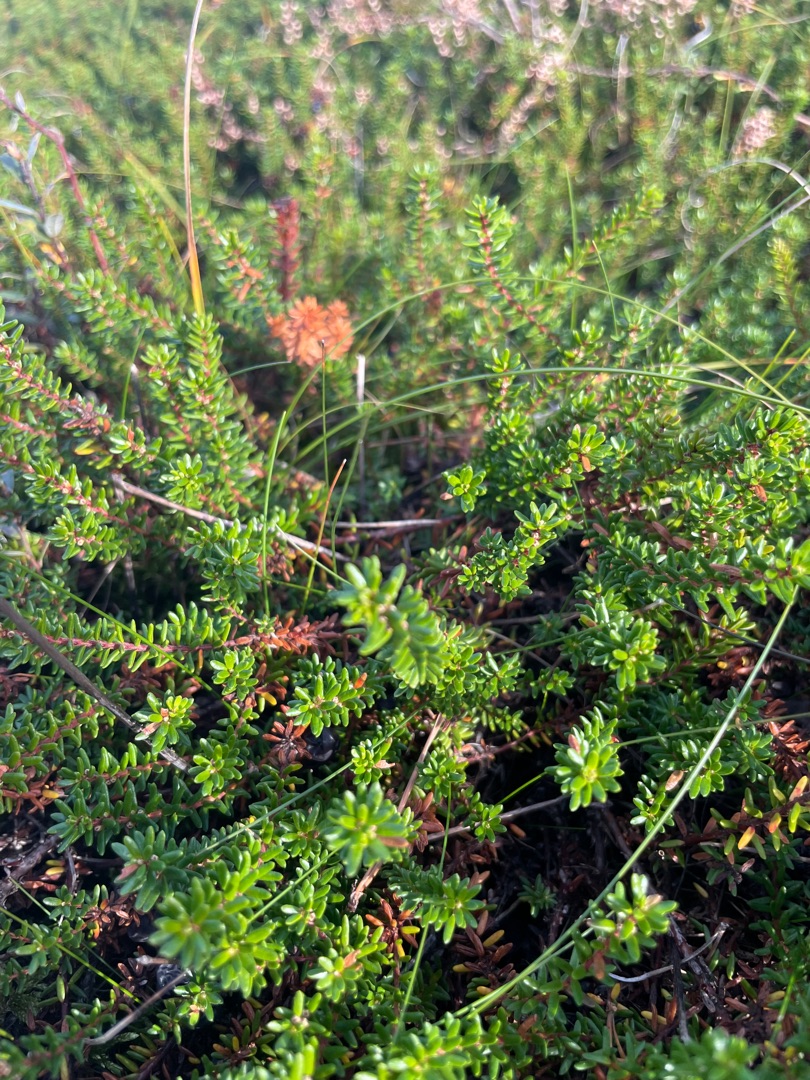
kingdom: Plantae
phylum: Tracheophyta
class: Magnoliopsida
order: Ericales
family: Ericaceae
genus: Empetrum
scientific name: Empetrum nigrum
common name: Revling
